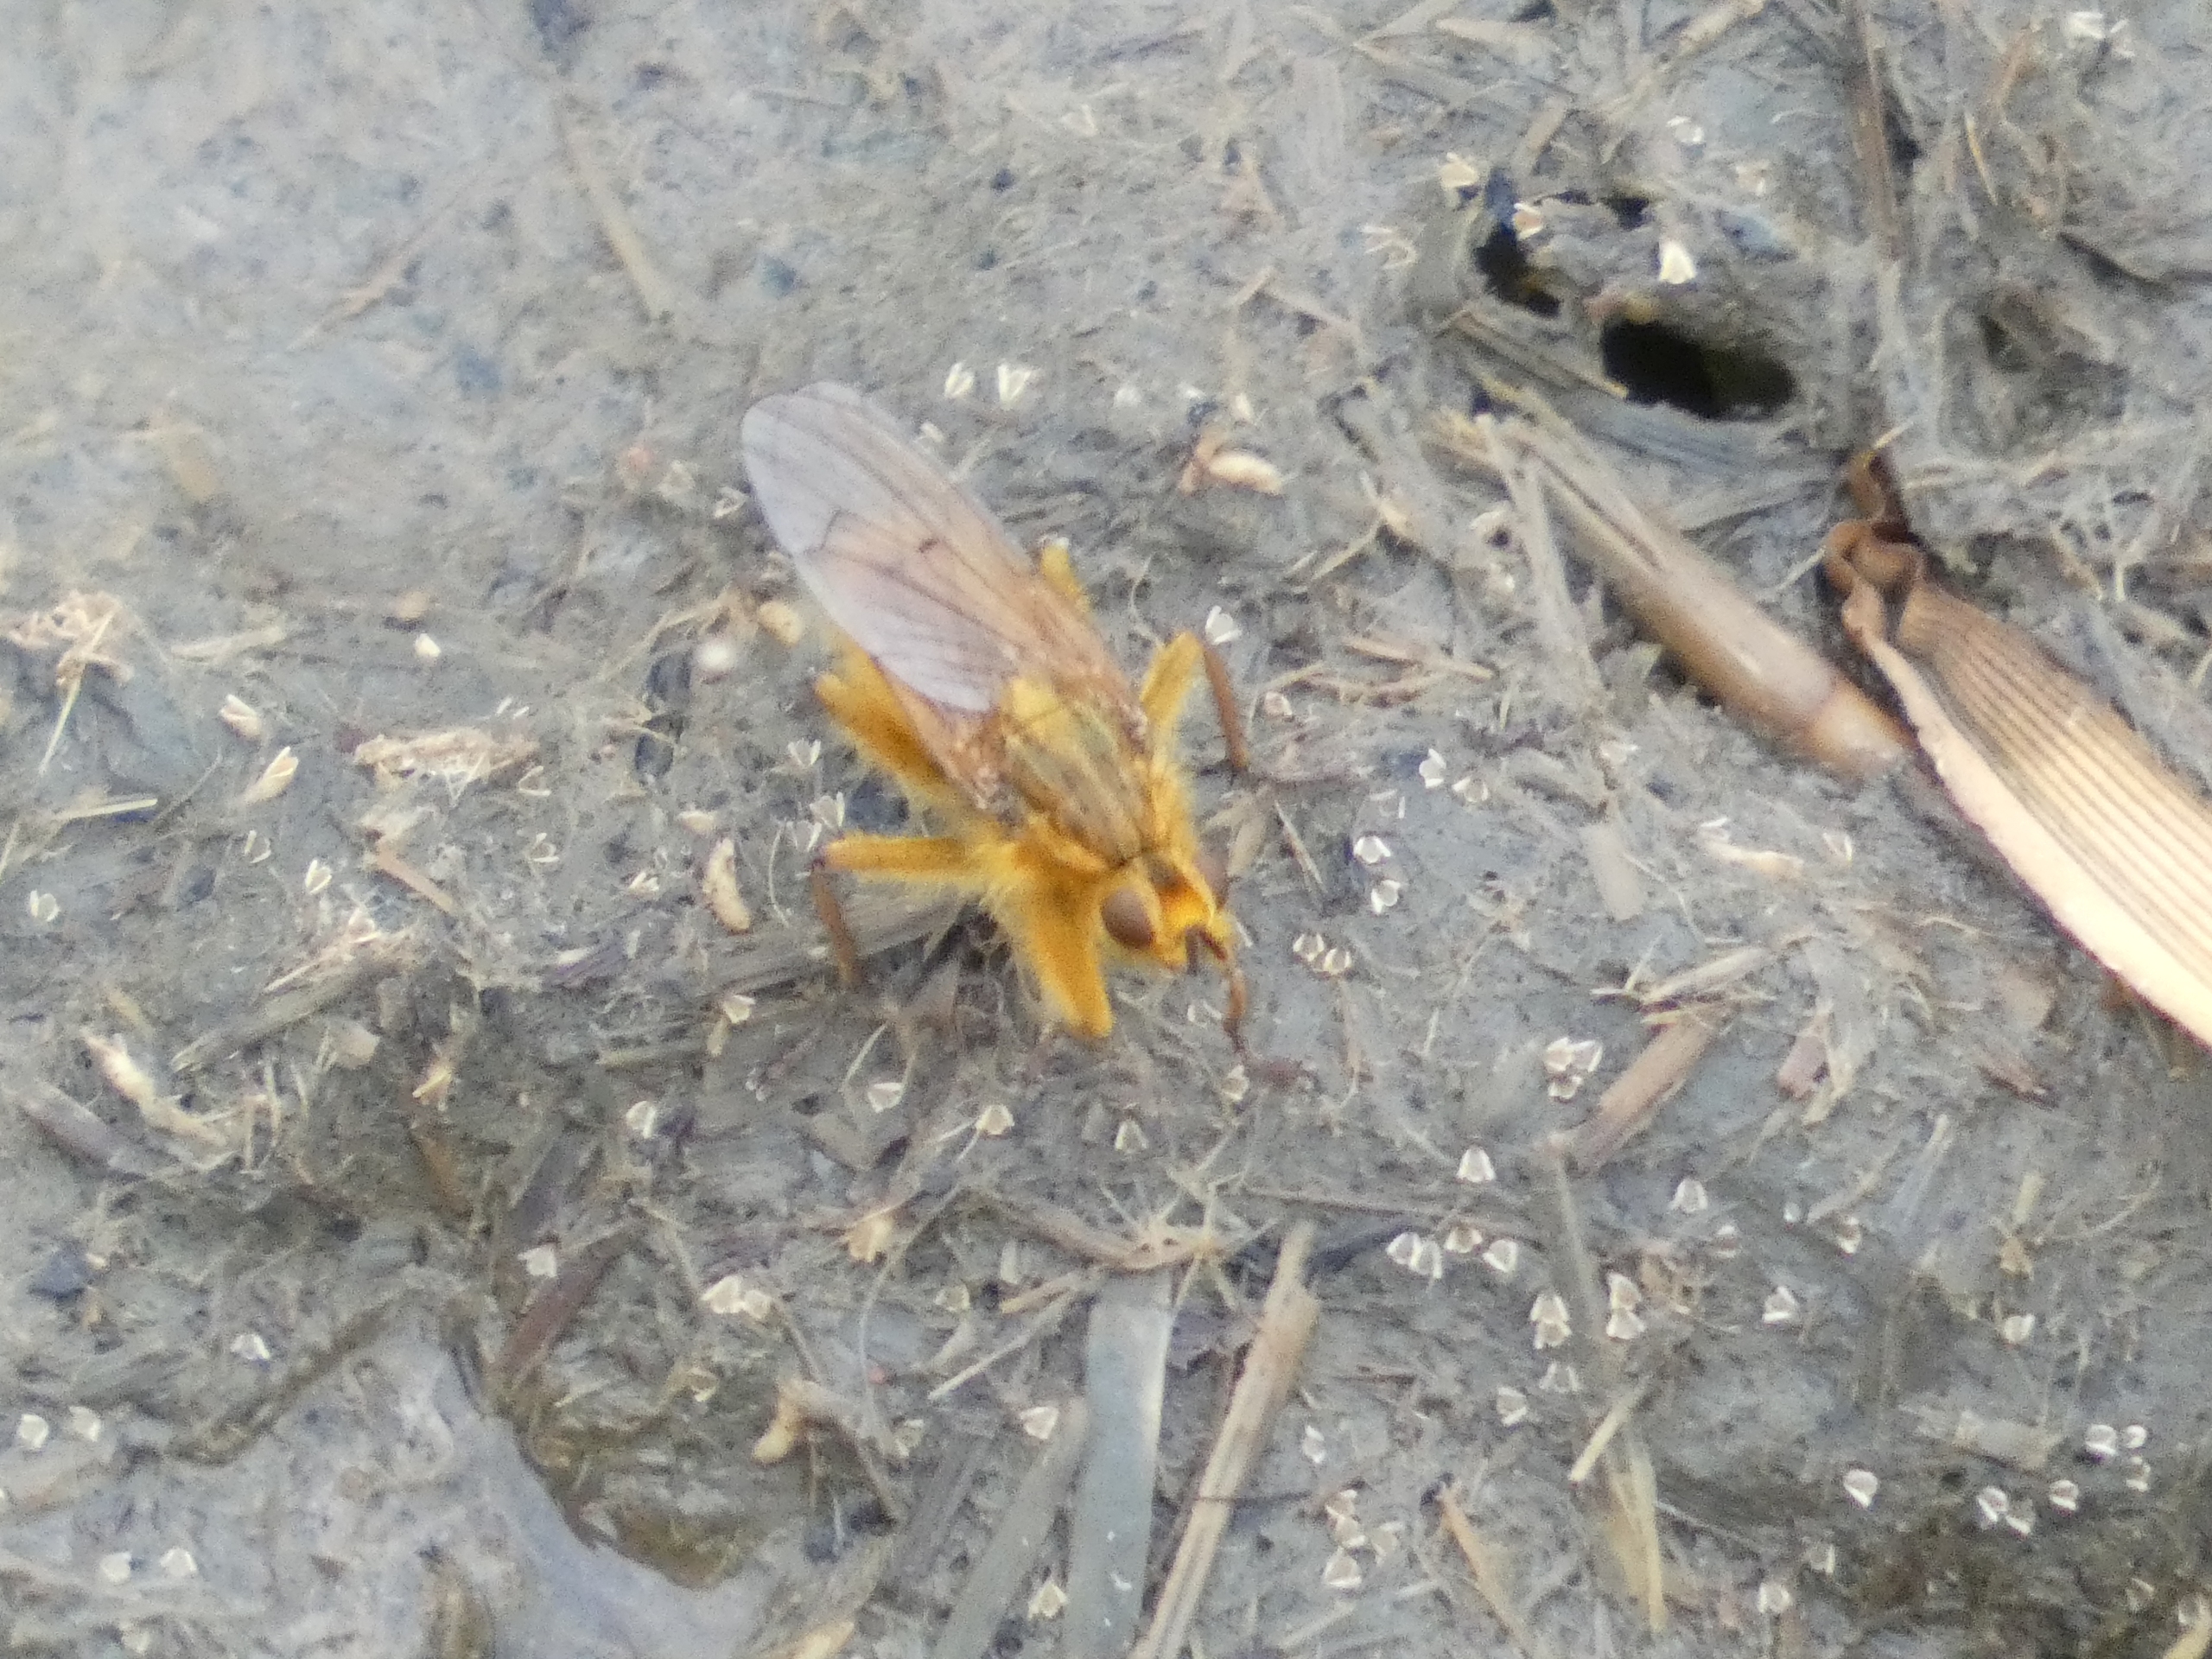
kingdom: Animalia
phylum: Arthropoda
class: Insecta
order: Diptera
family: Scathophagidae
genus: Scathophaga
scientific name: Scathophaga stercoraria
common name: Almindelig gødningsflue
